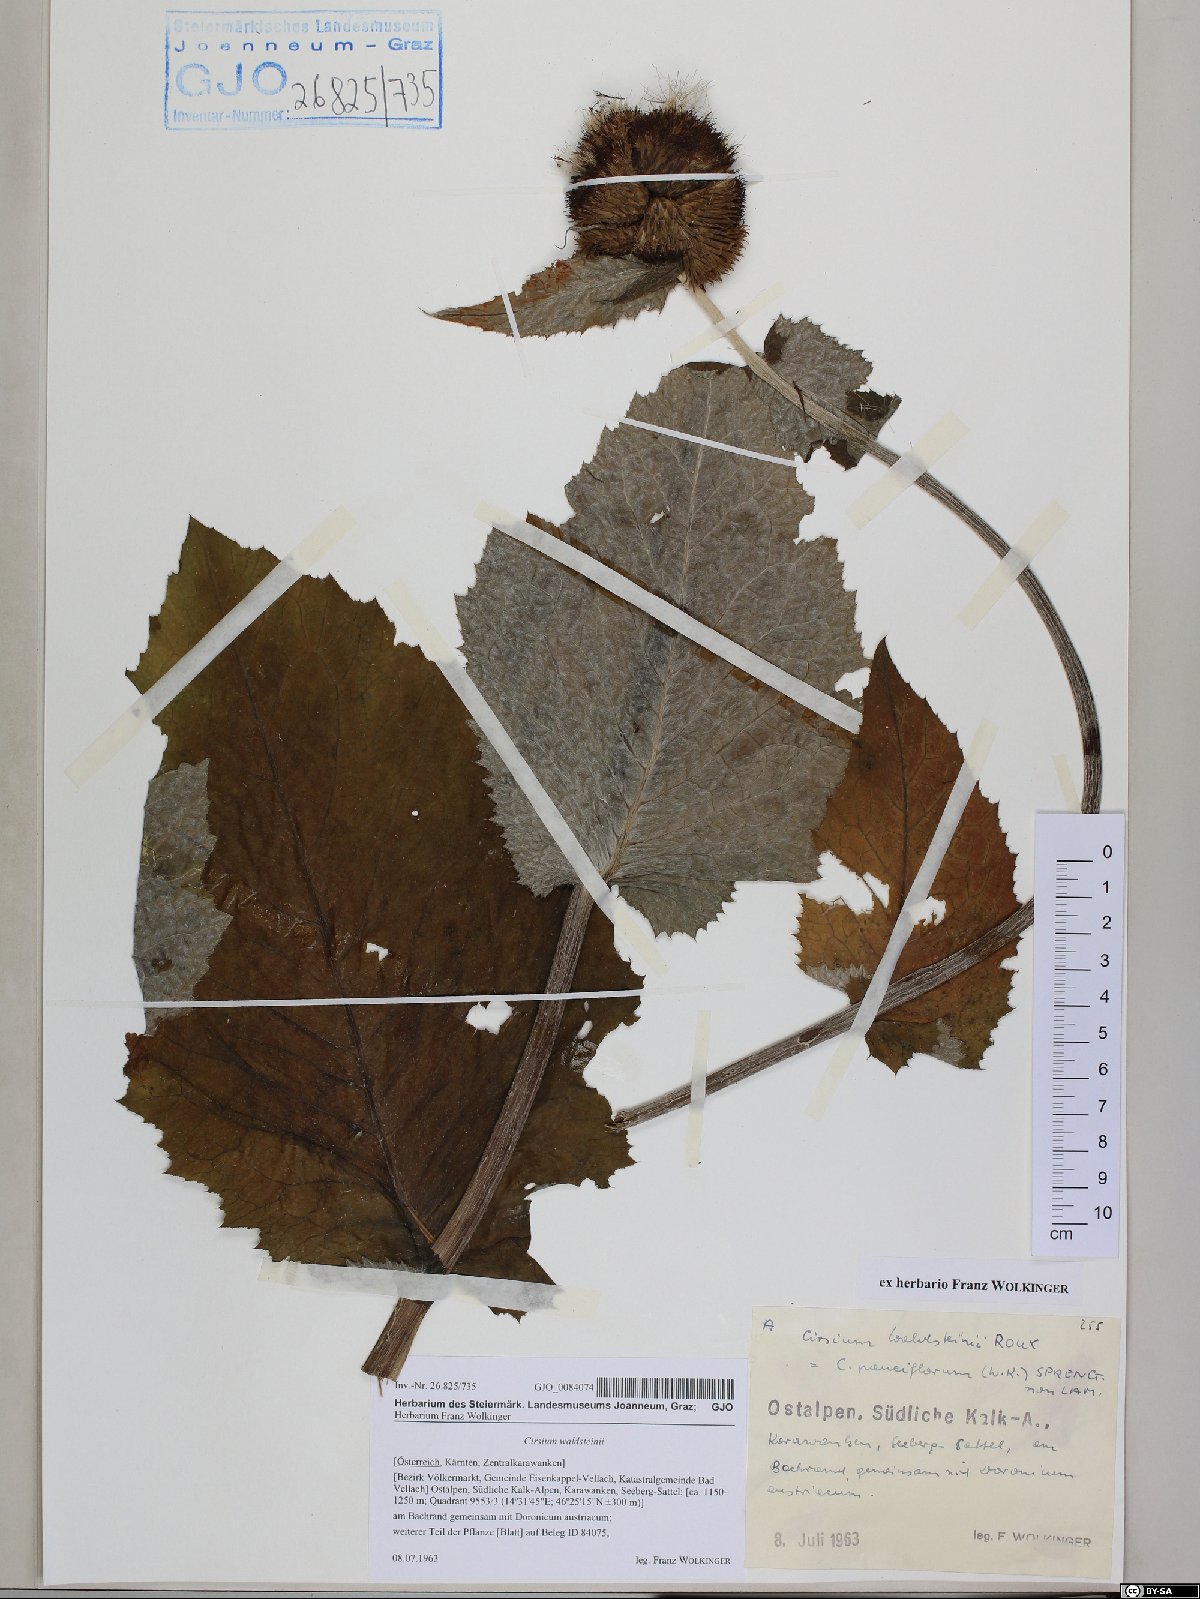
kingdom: Plantae
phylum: Tracheophyta
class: Magnoliopsida
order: Asterales
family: Asteraceae
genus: Cirsium
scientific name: Cirsium greimleri
